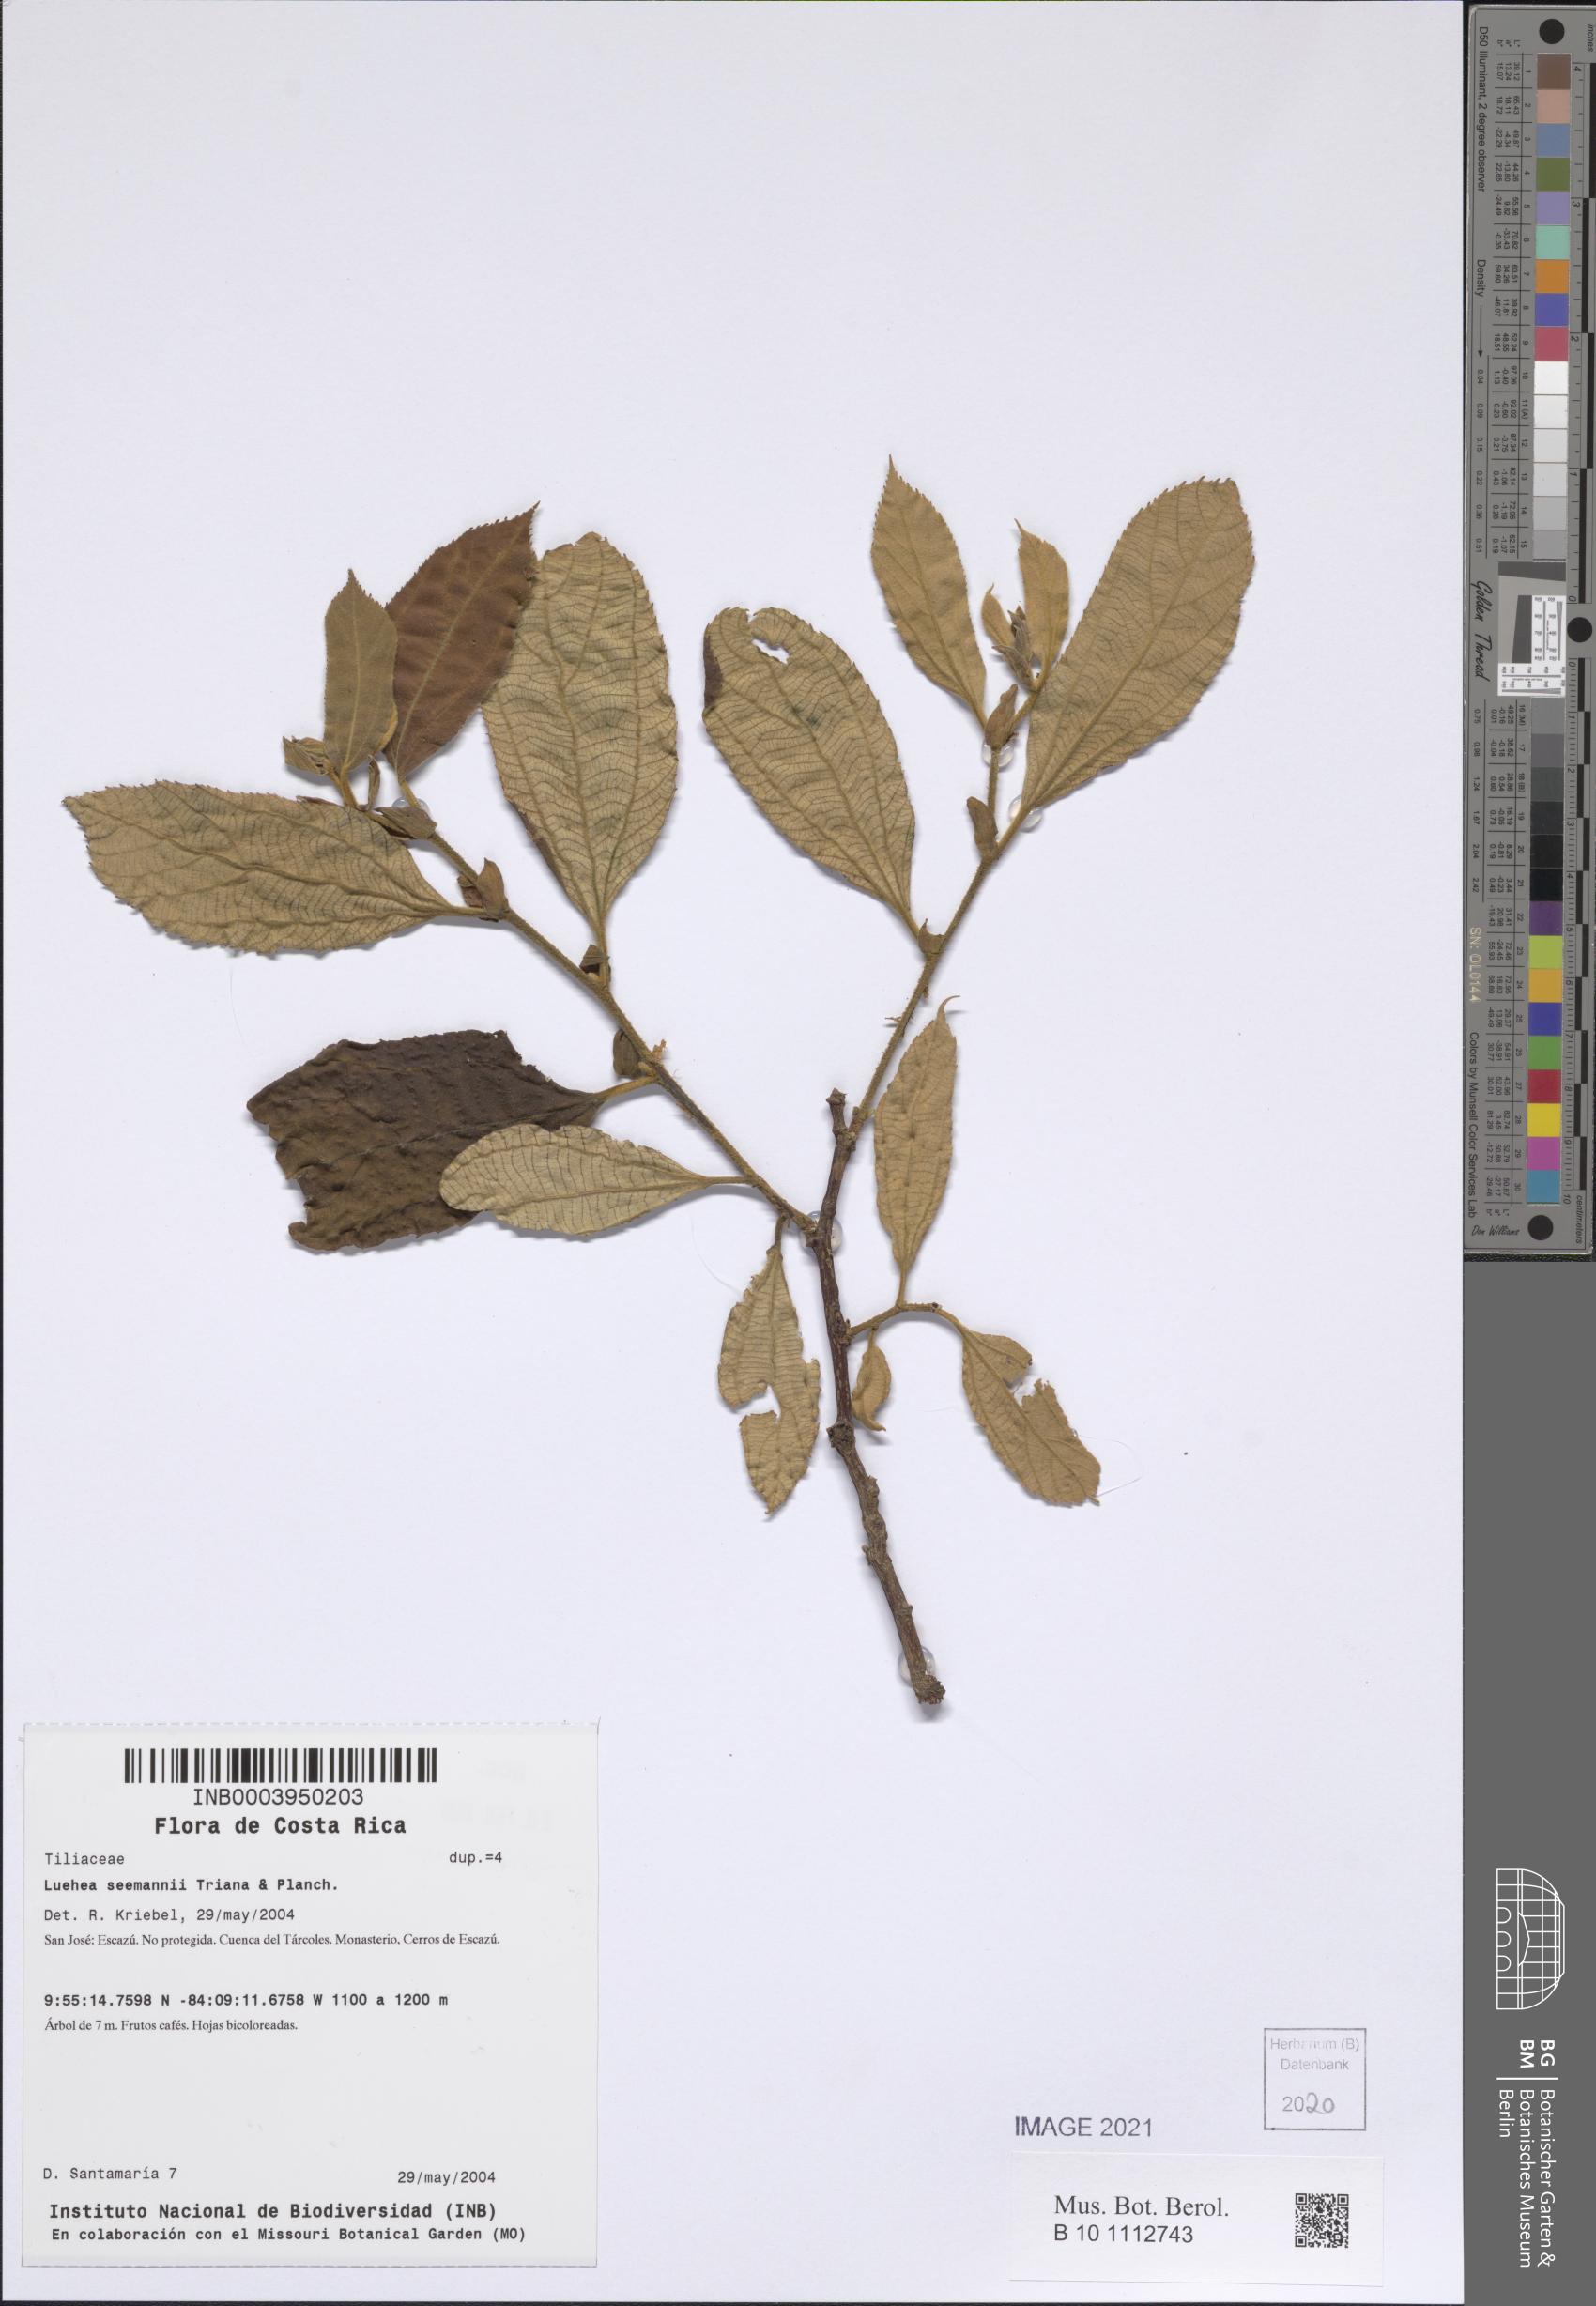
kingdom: Plantae
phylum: Tracheophyta
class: Magnoliopsida
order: Malvales
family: Malvaceae
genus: Luehea
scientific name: Luehea seemannii
